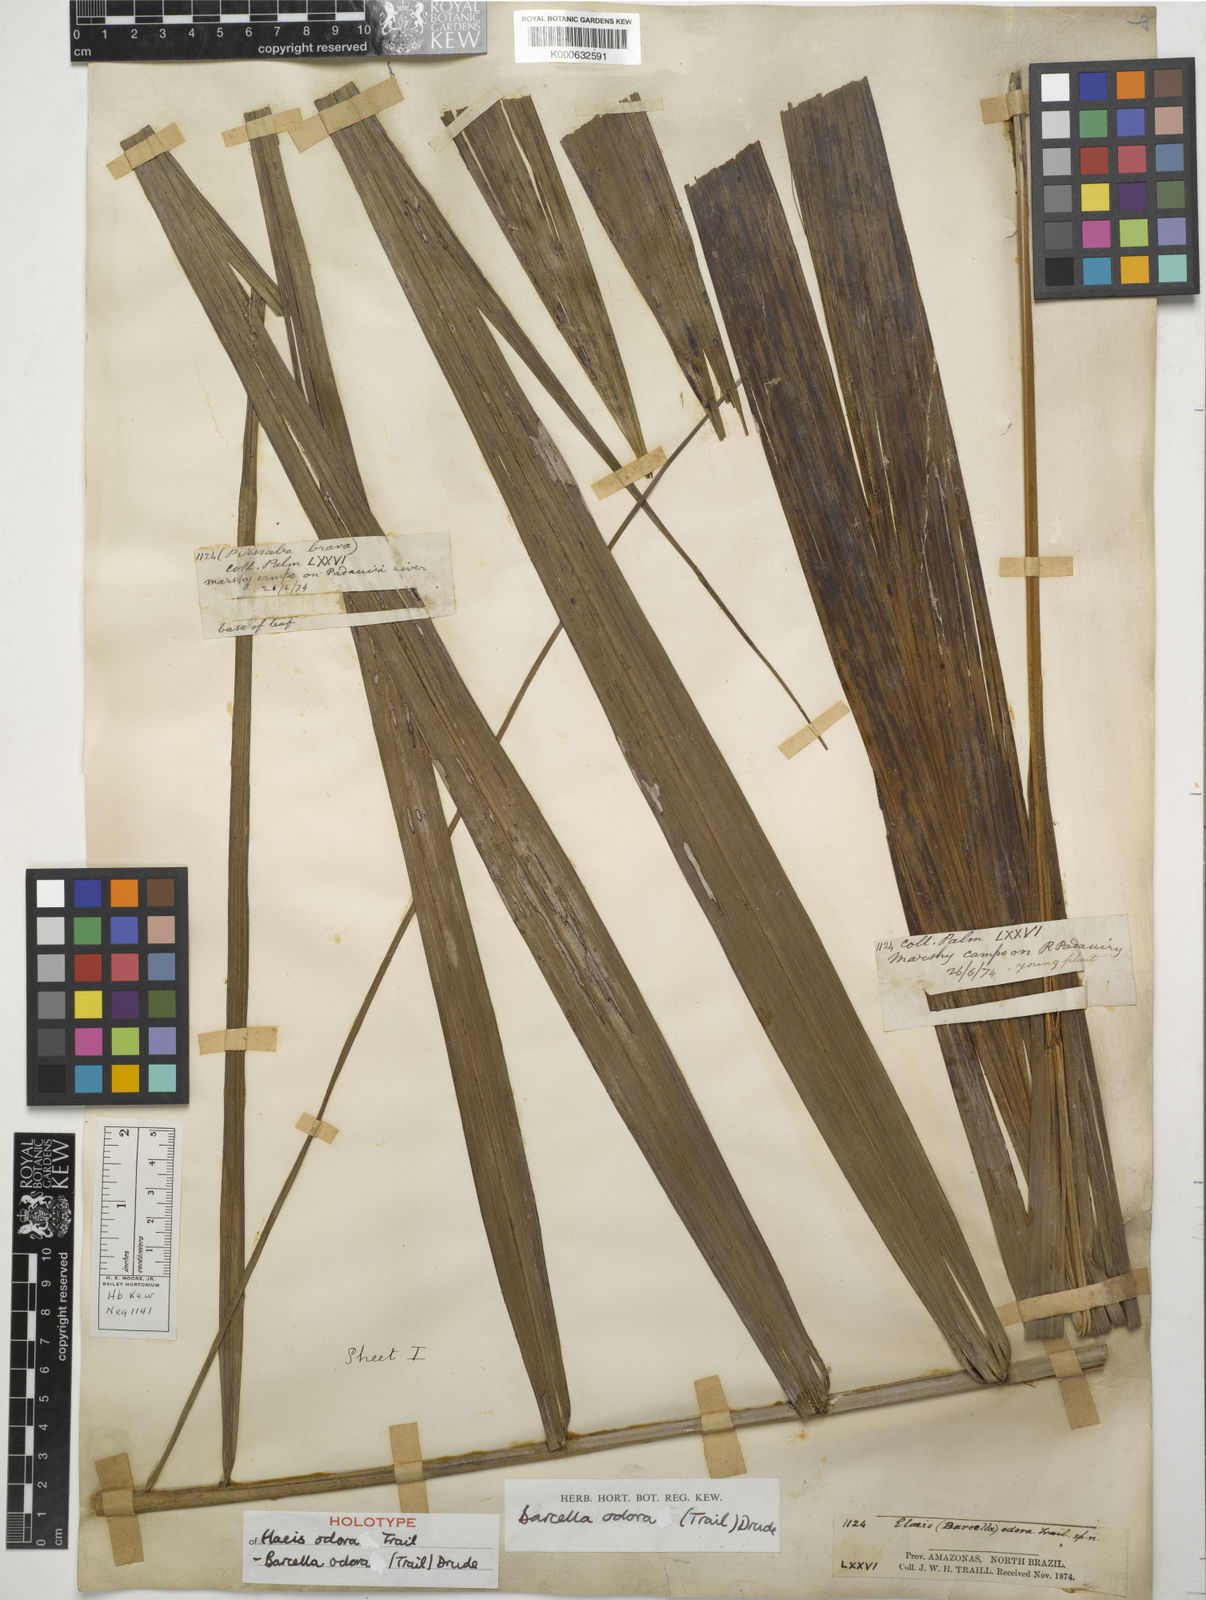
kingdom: Plantae
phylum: Tracheophyta
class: Liliopsida
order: Arecales
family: Arecaceae
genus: Barcella
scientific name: Barcella odora
